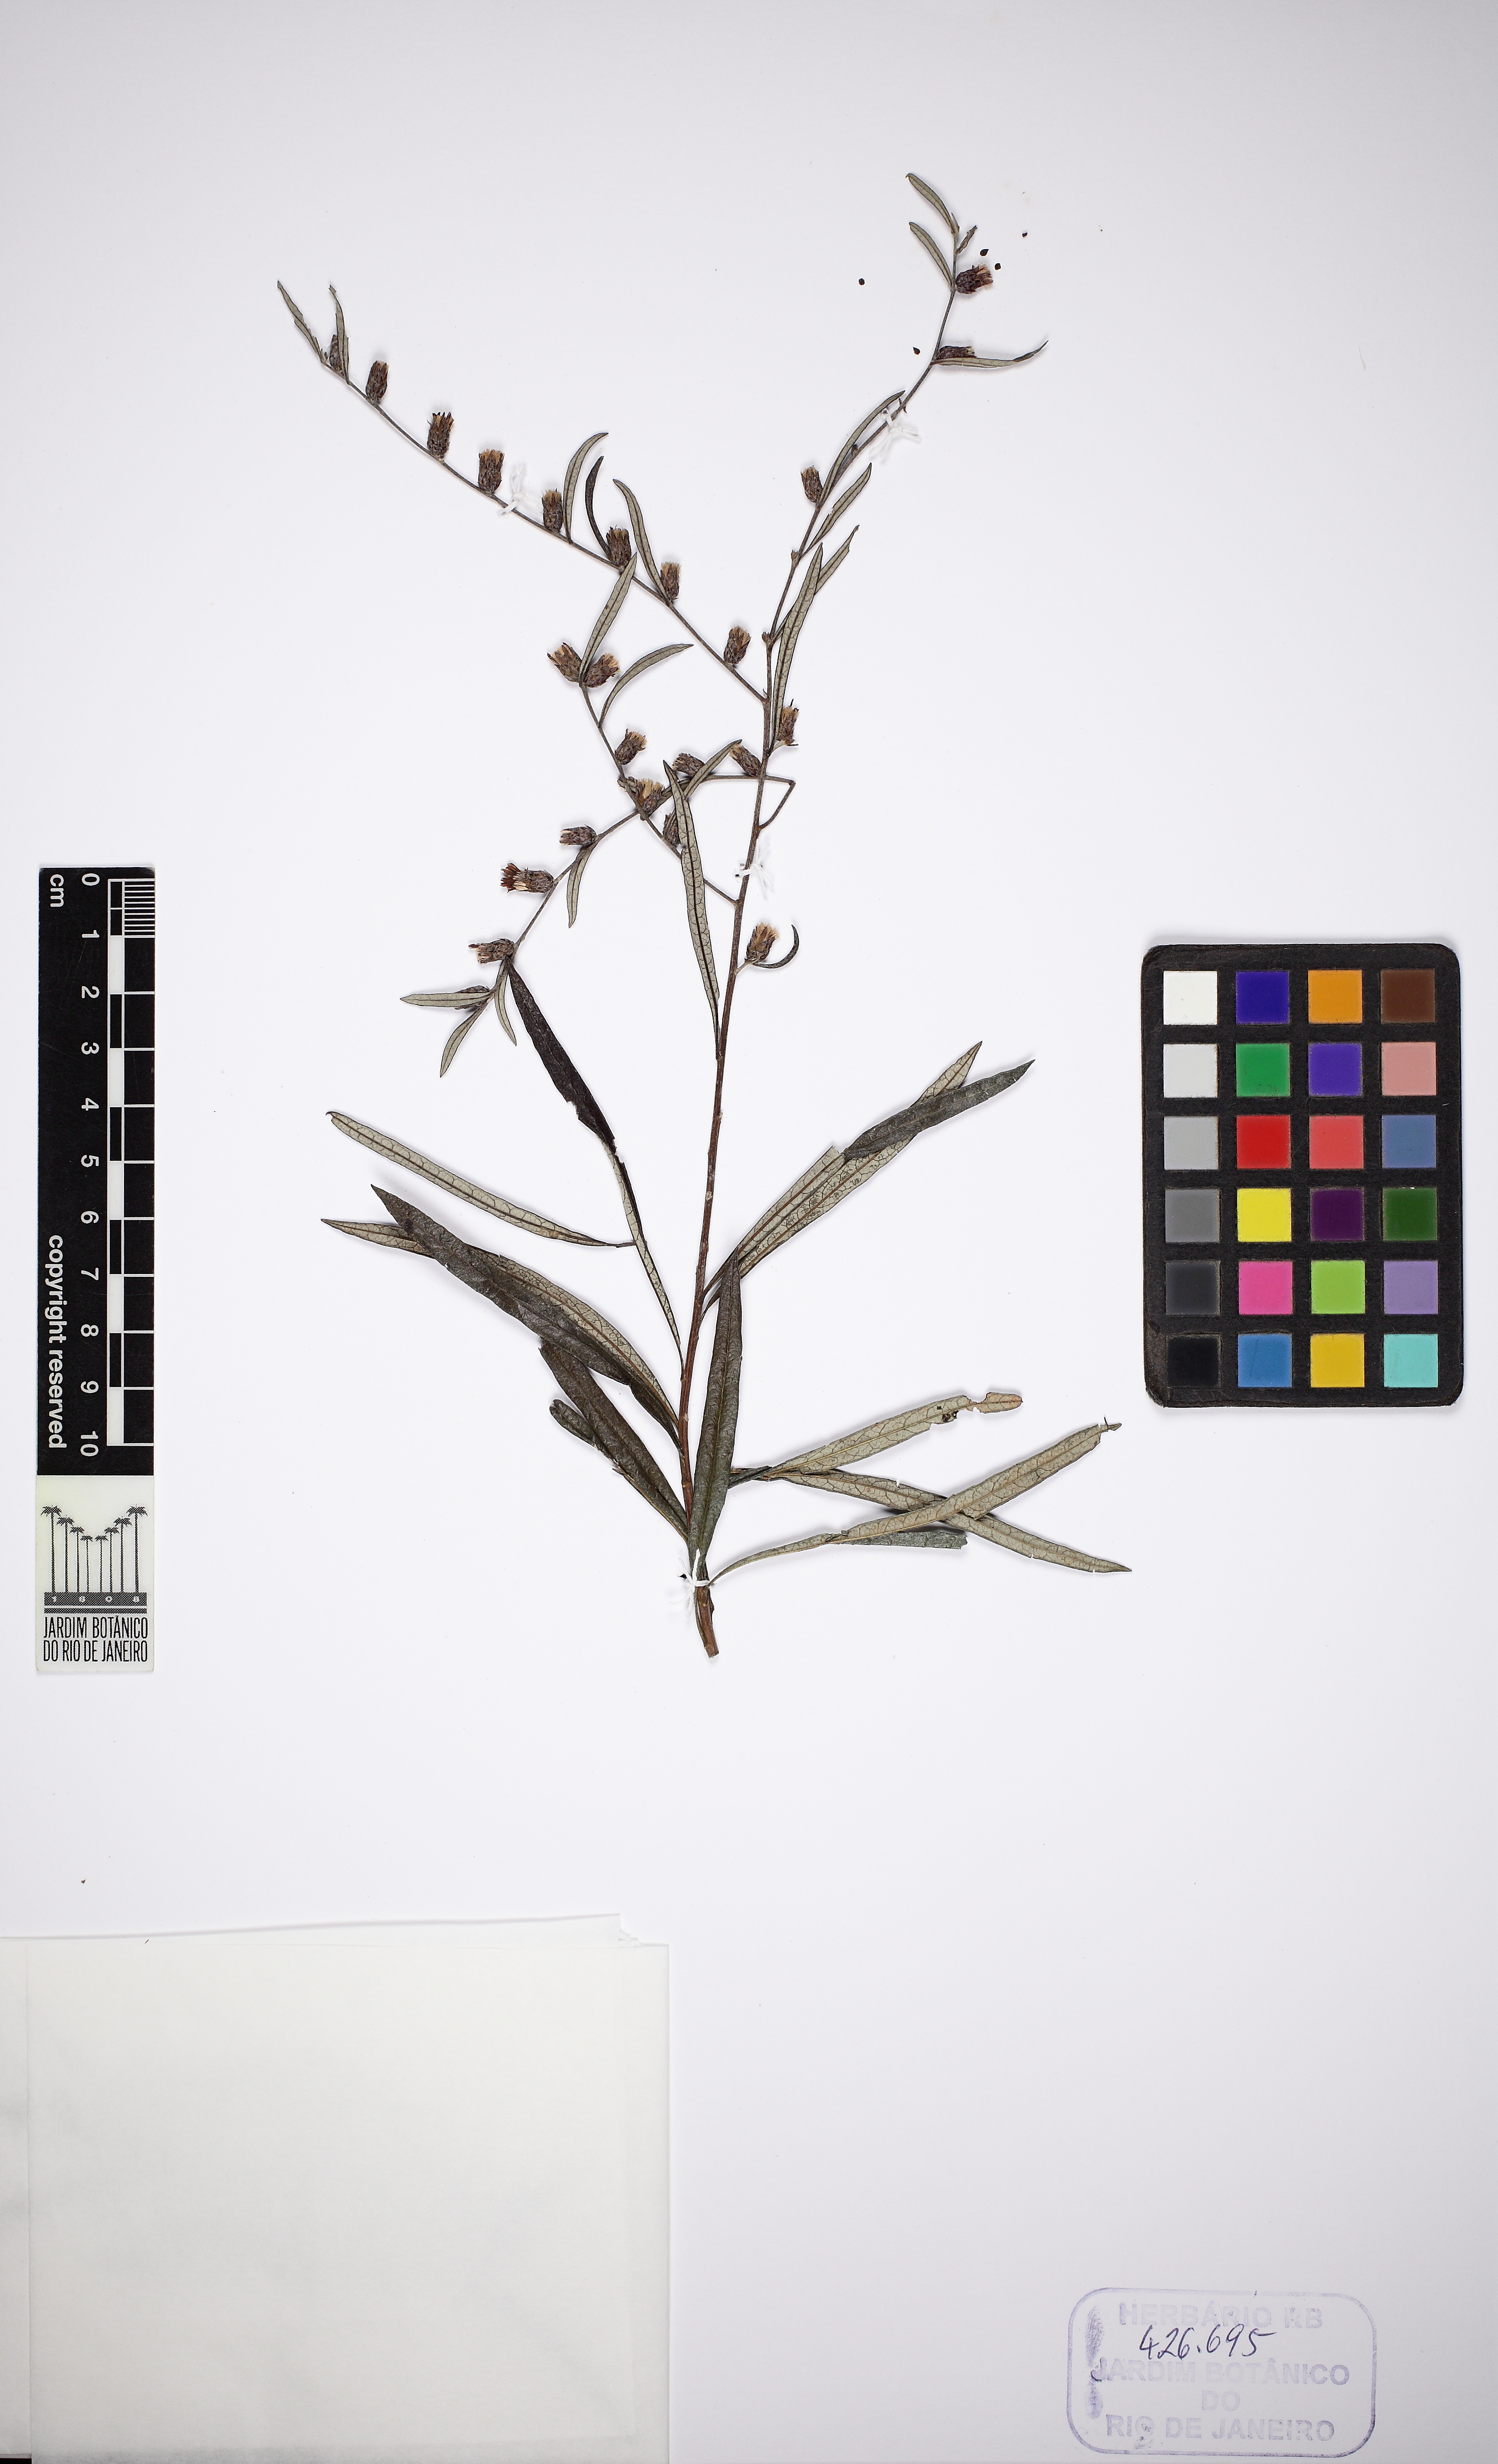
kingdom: Plantae
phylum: Tracheophyta
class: Magnoliopsida
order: Asterales
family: Asteraceae
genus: Vernonia
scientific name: Vernonia
